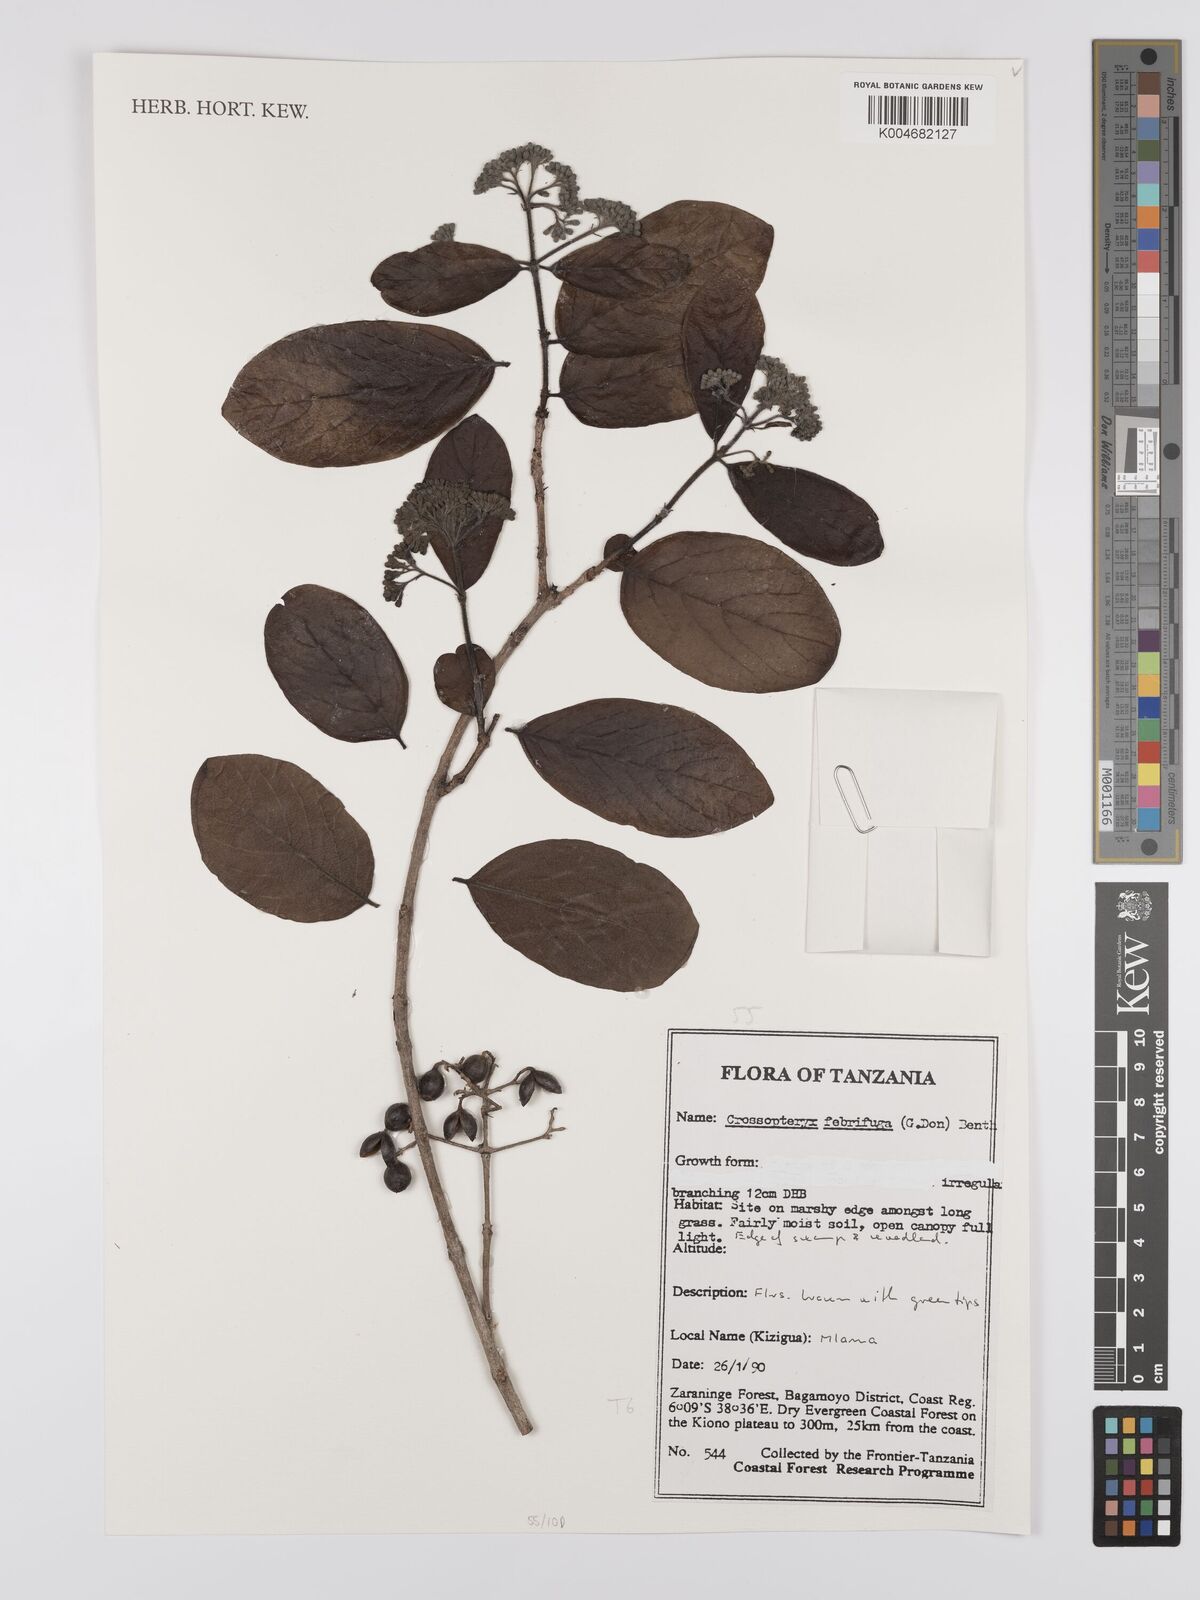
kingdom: Plantae
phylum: Tracheophyta
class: Magnoliopsida
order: Gentianales
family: Rubiaceae
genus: Crossopteryx
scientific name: Crossopteryx febrifuga
